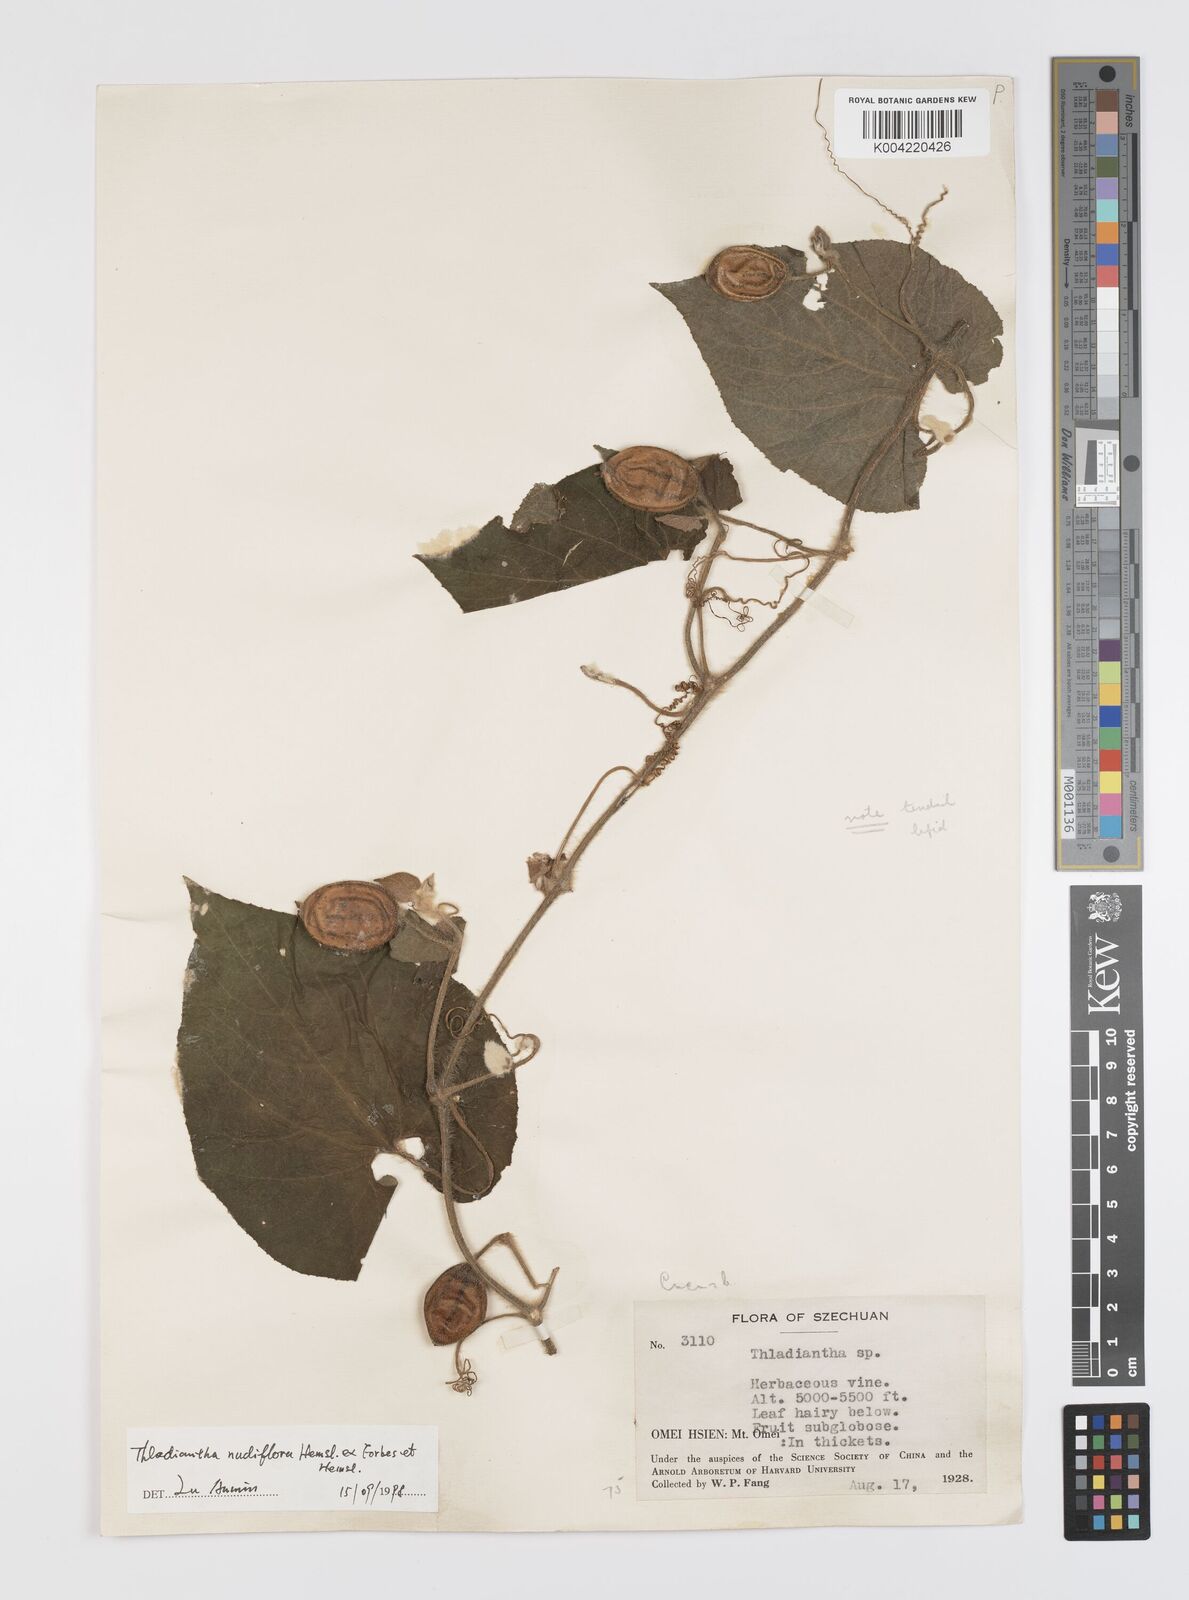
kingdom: Plantae
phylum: Tracheophyta
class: Magnoliopsida
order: Cucurbitales
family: Cucurbitaceae
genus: Thladiantha
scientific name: Thladiantha nudiflora
